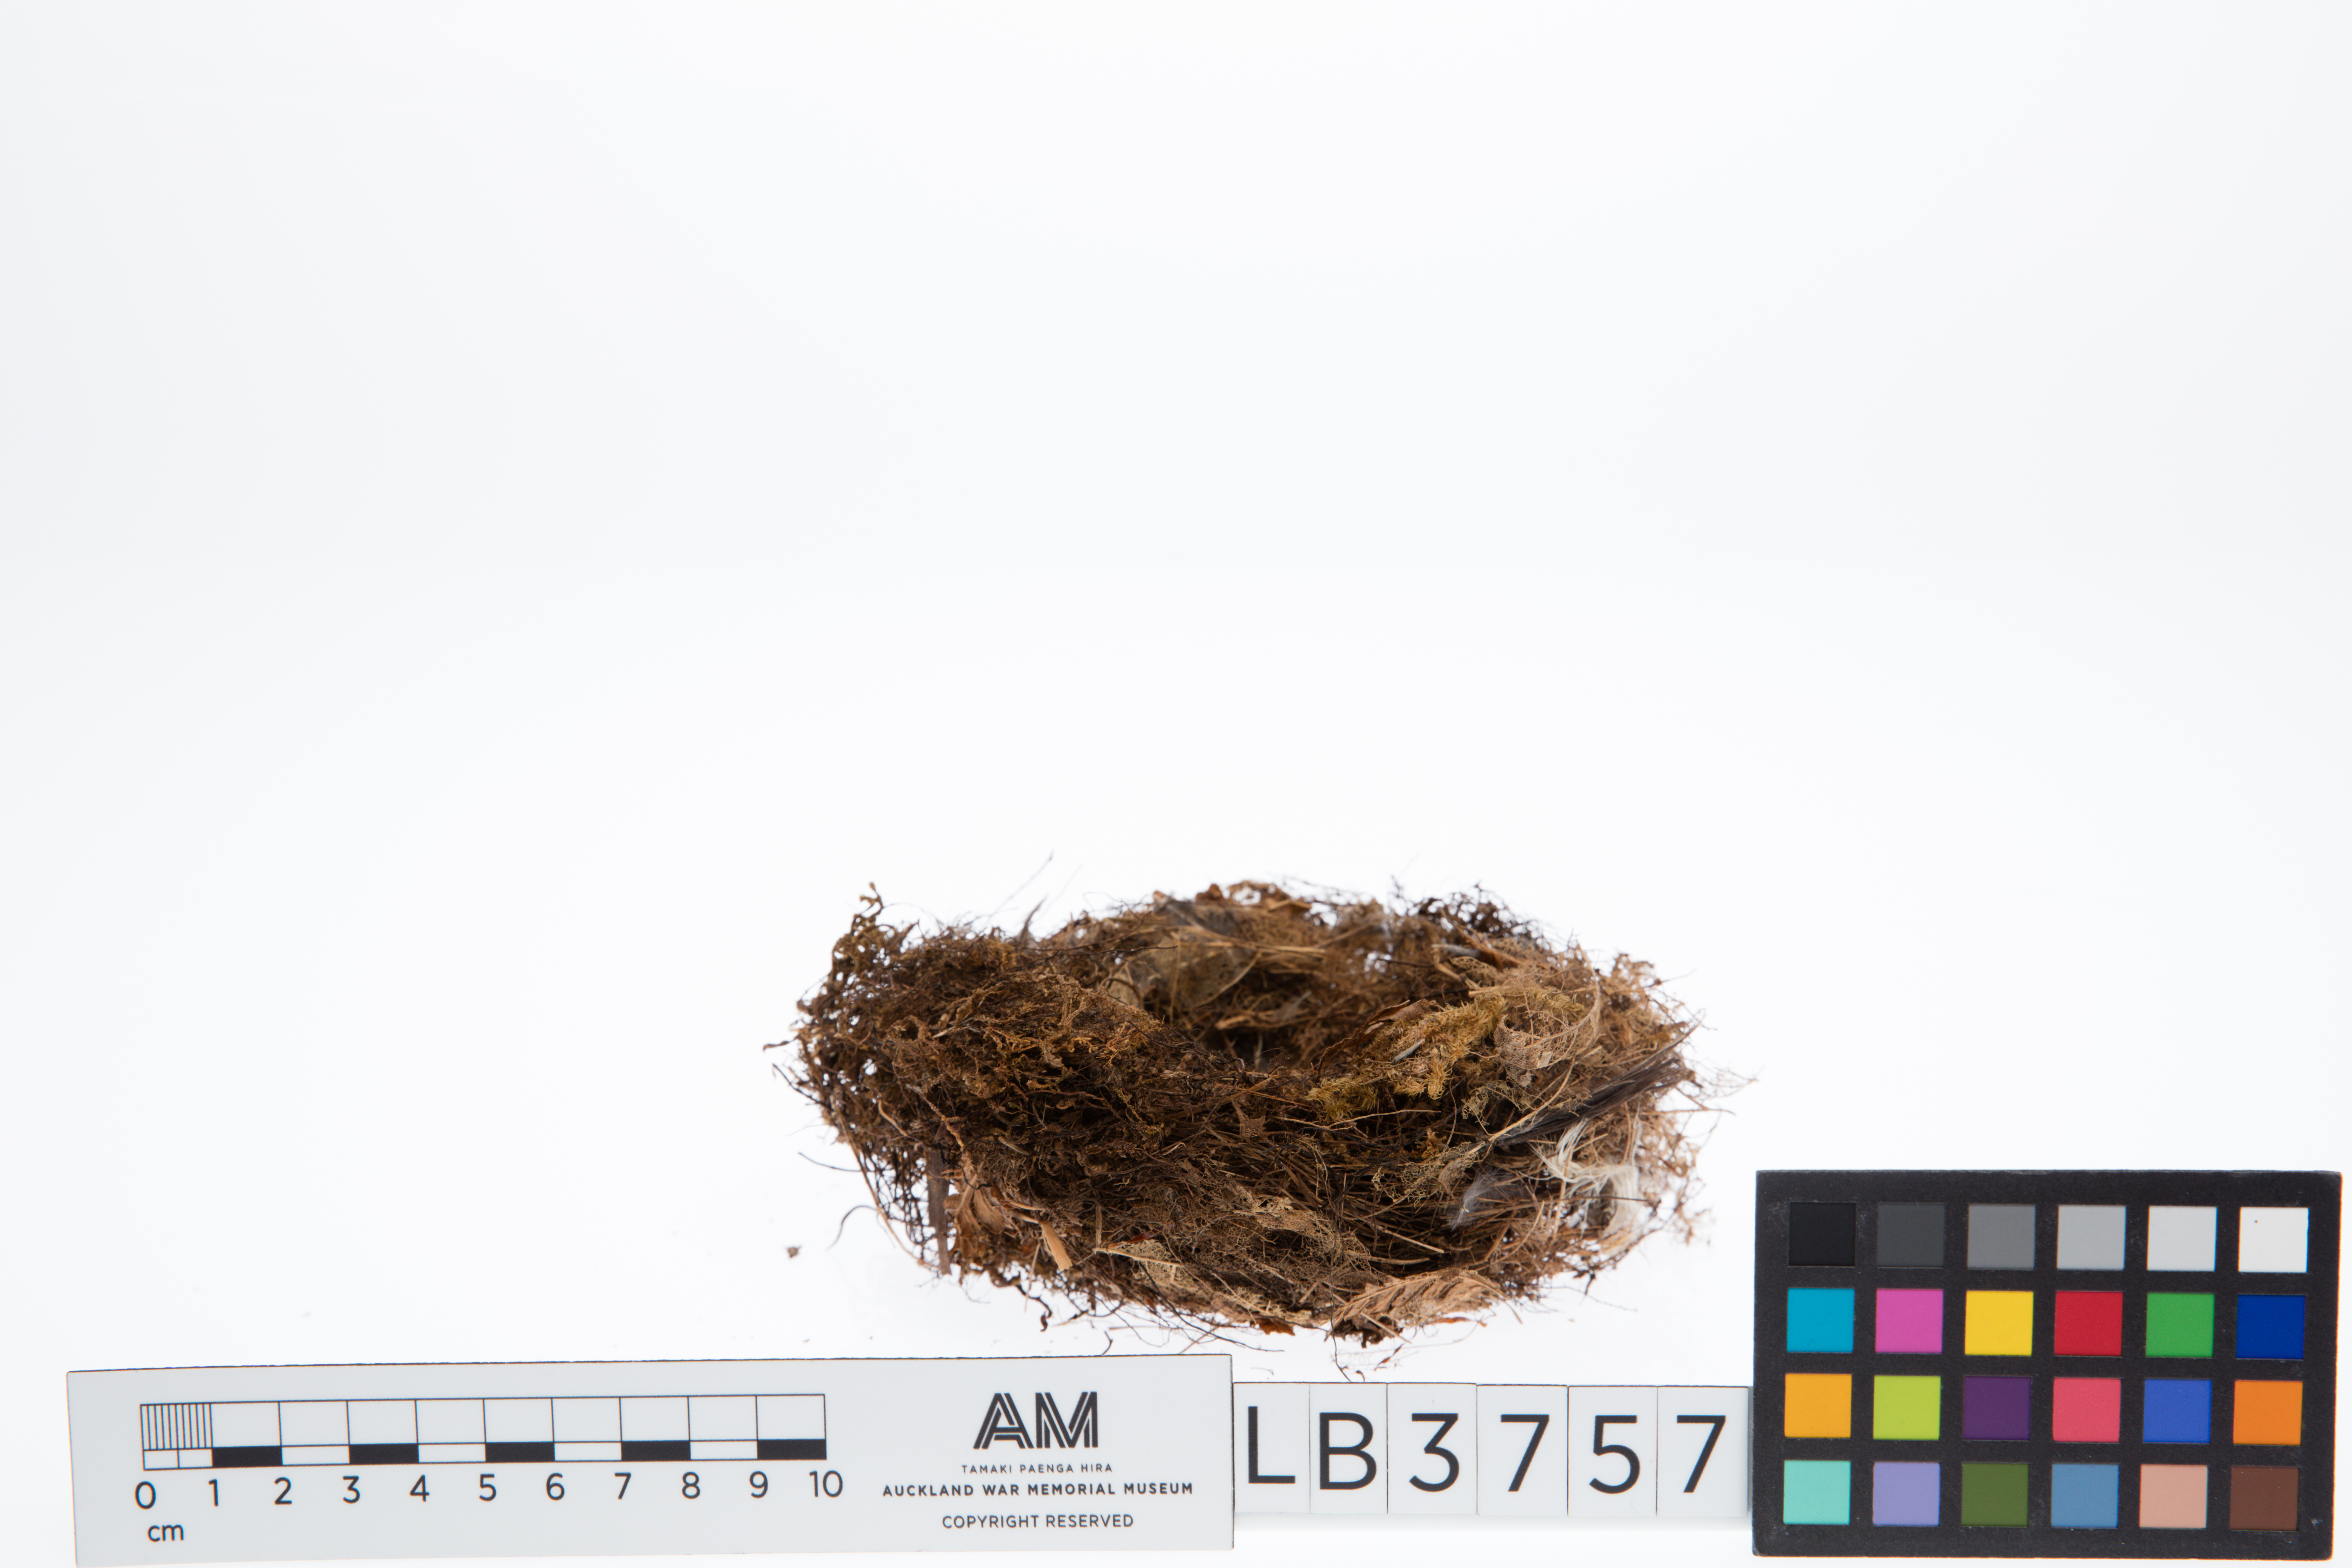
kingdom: Animalia
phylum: Chordata
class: Aves
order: Passeriformes
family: Acanthisittidae
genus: Acanthisitta
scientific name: Acanthisitta chloris
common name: Rifleman
